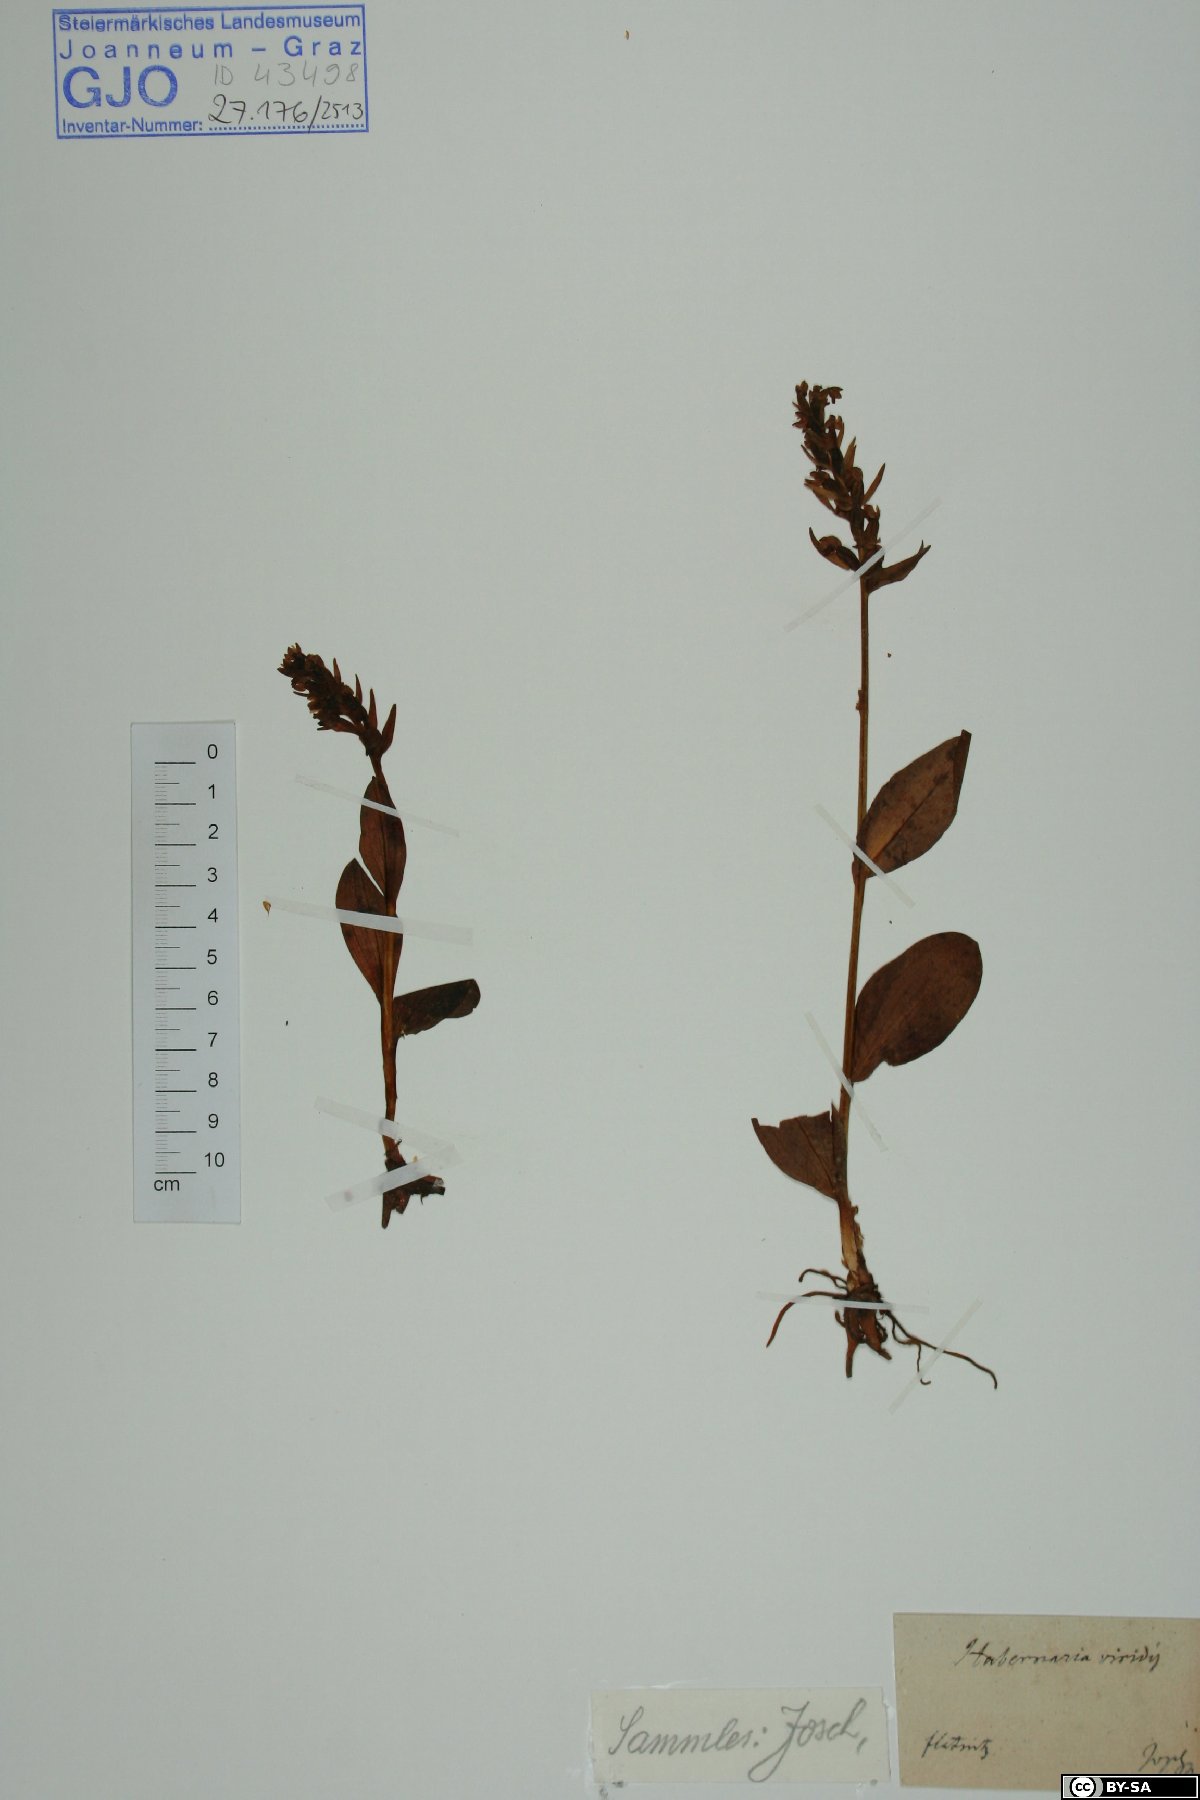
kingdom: Plantae
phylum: Tracheophyta
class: Liliopsida
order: Asparagales
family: Orchidaceae
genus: Dactylorhiza
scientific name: Dactylorhiza viridis
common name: Longbract frog orchid
